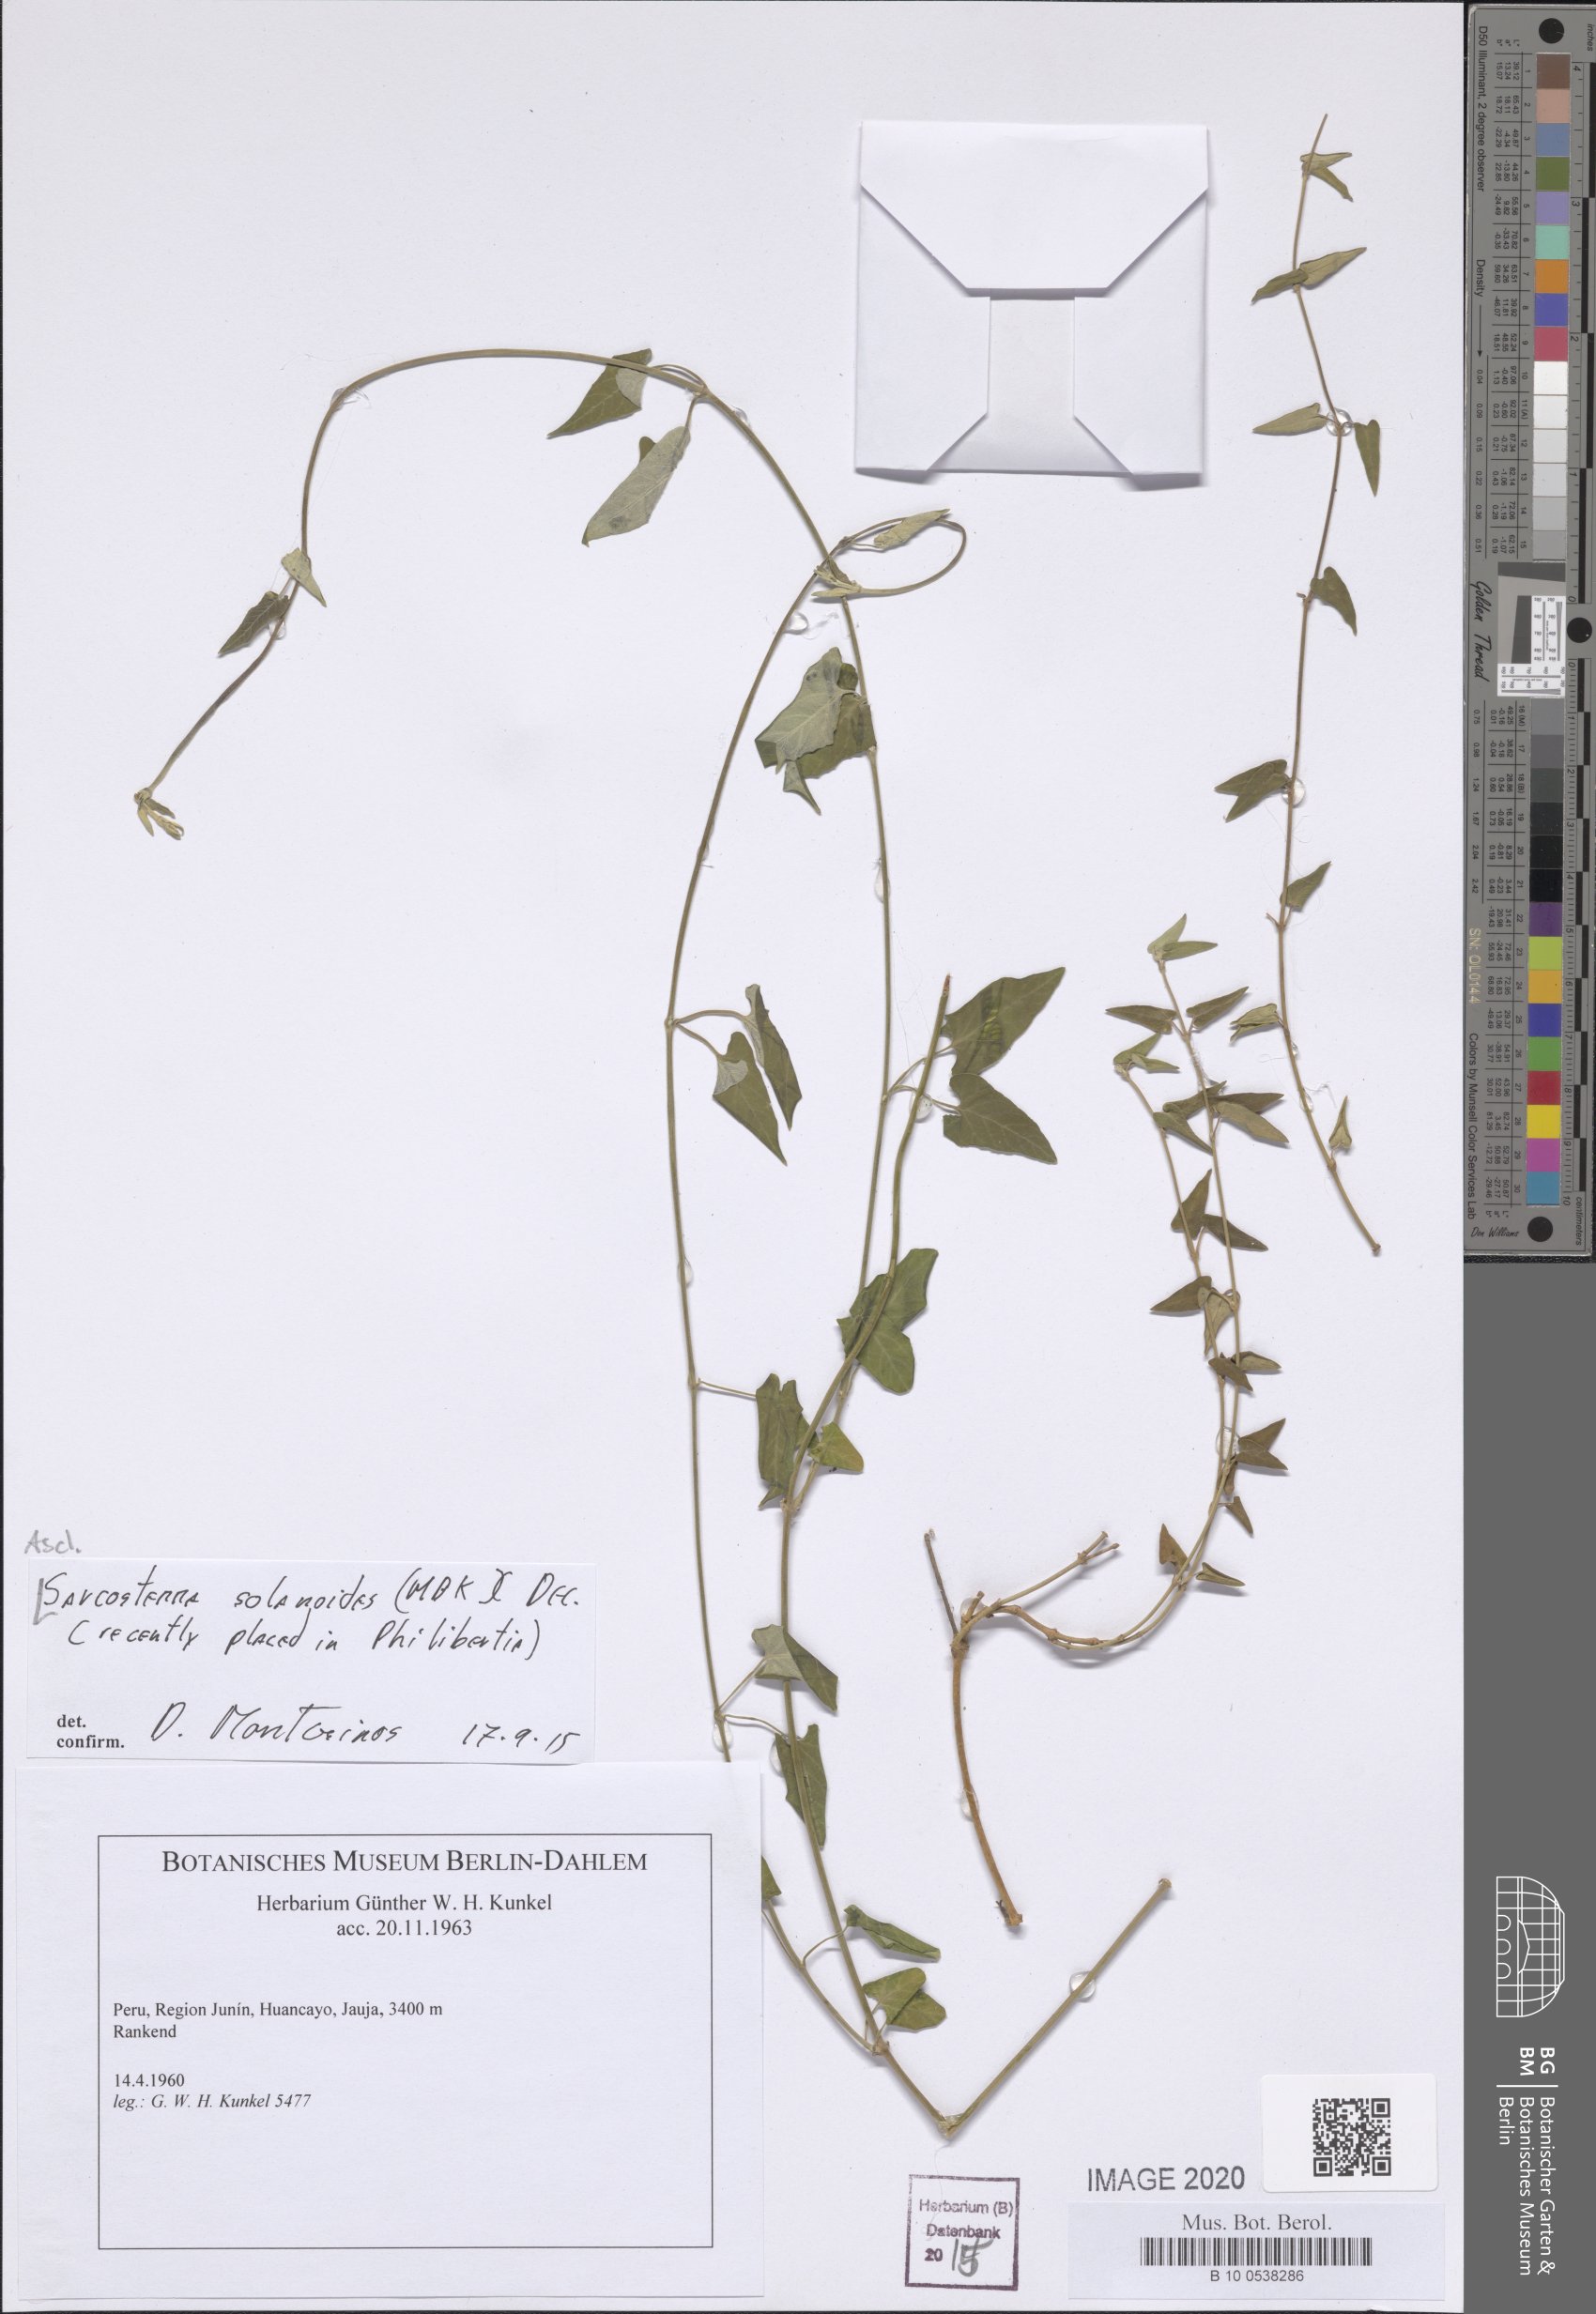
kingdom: Plantae
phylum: Tracheophyta
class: Magnoliopsida
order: Gentianales
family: Apocynaceae
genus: Philibertia
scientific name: Philibertia solanoides
